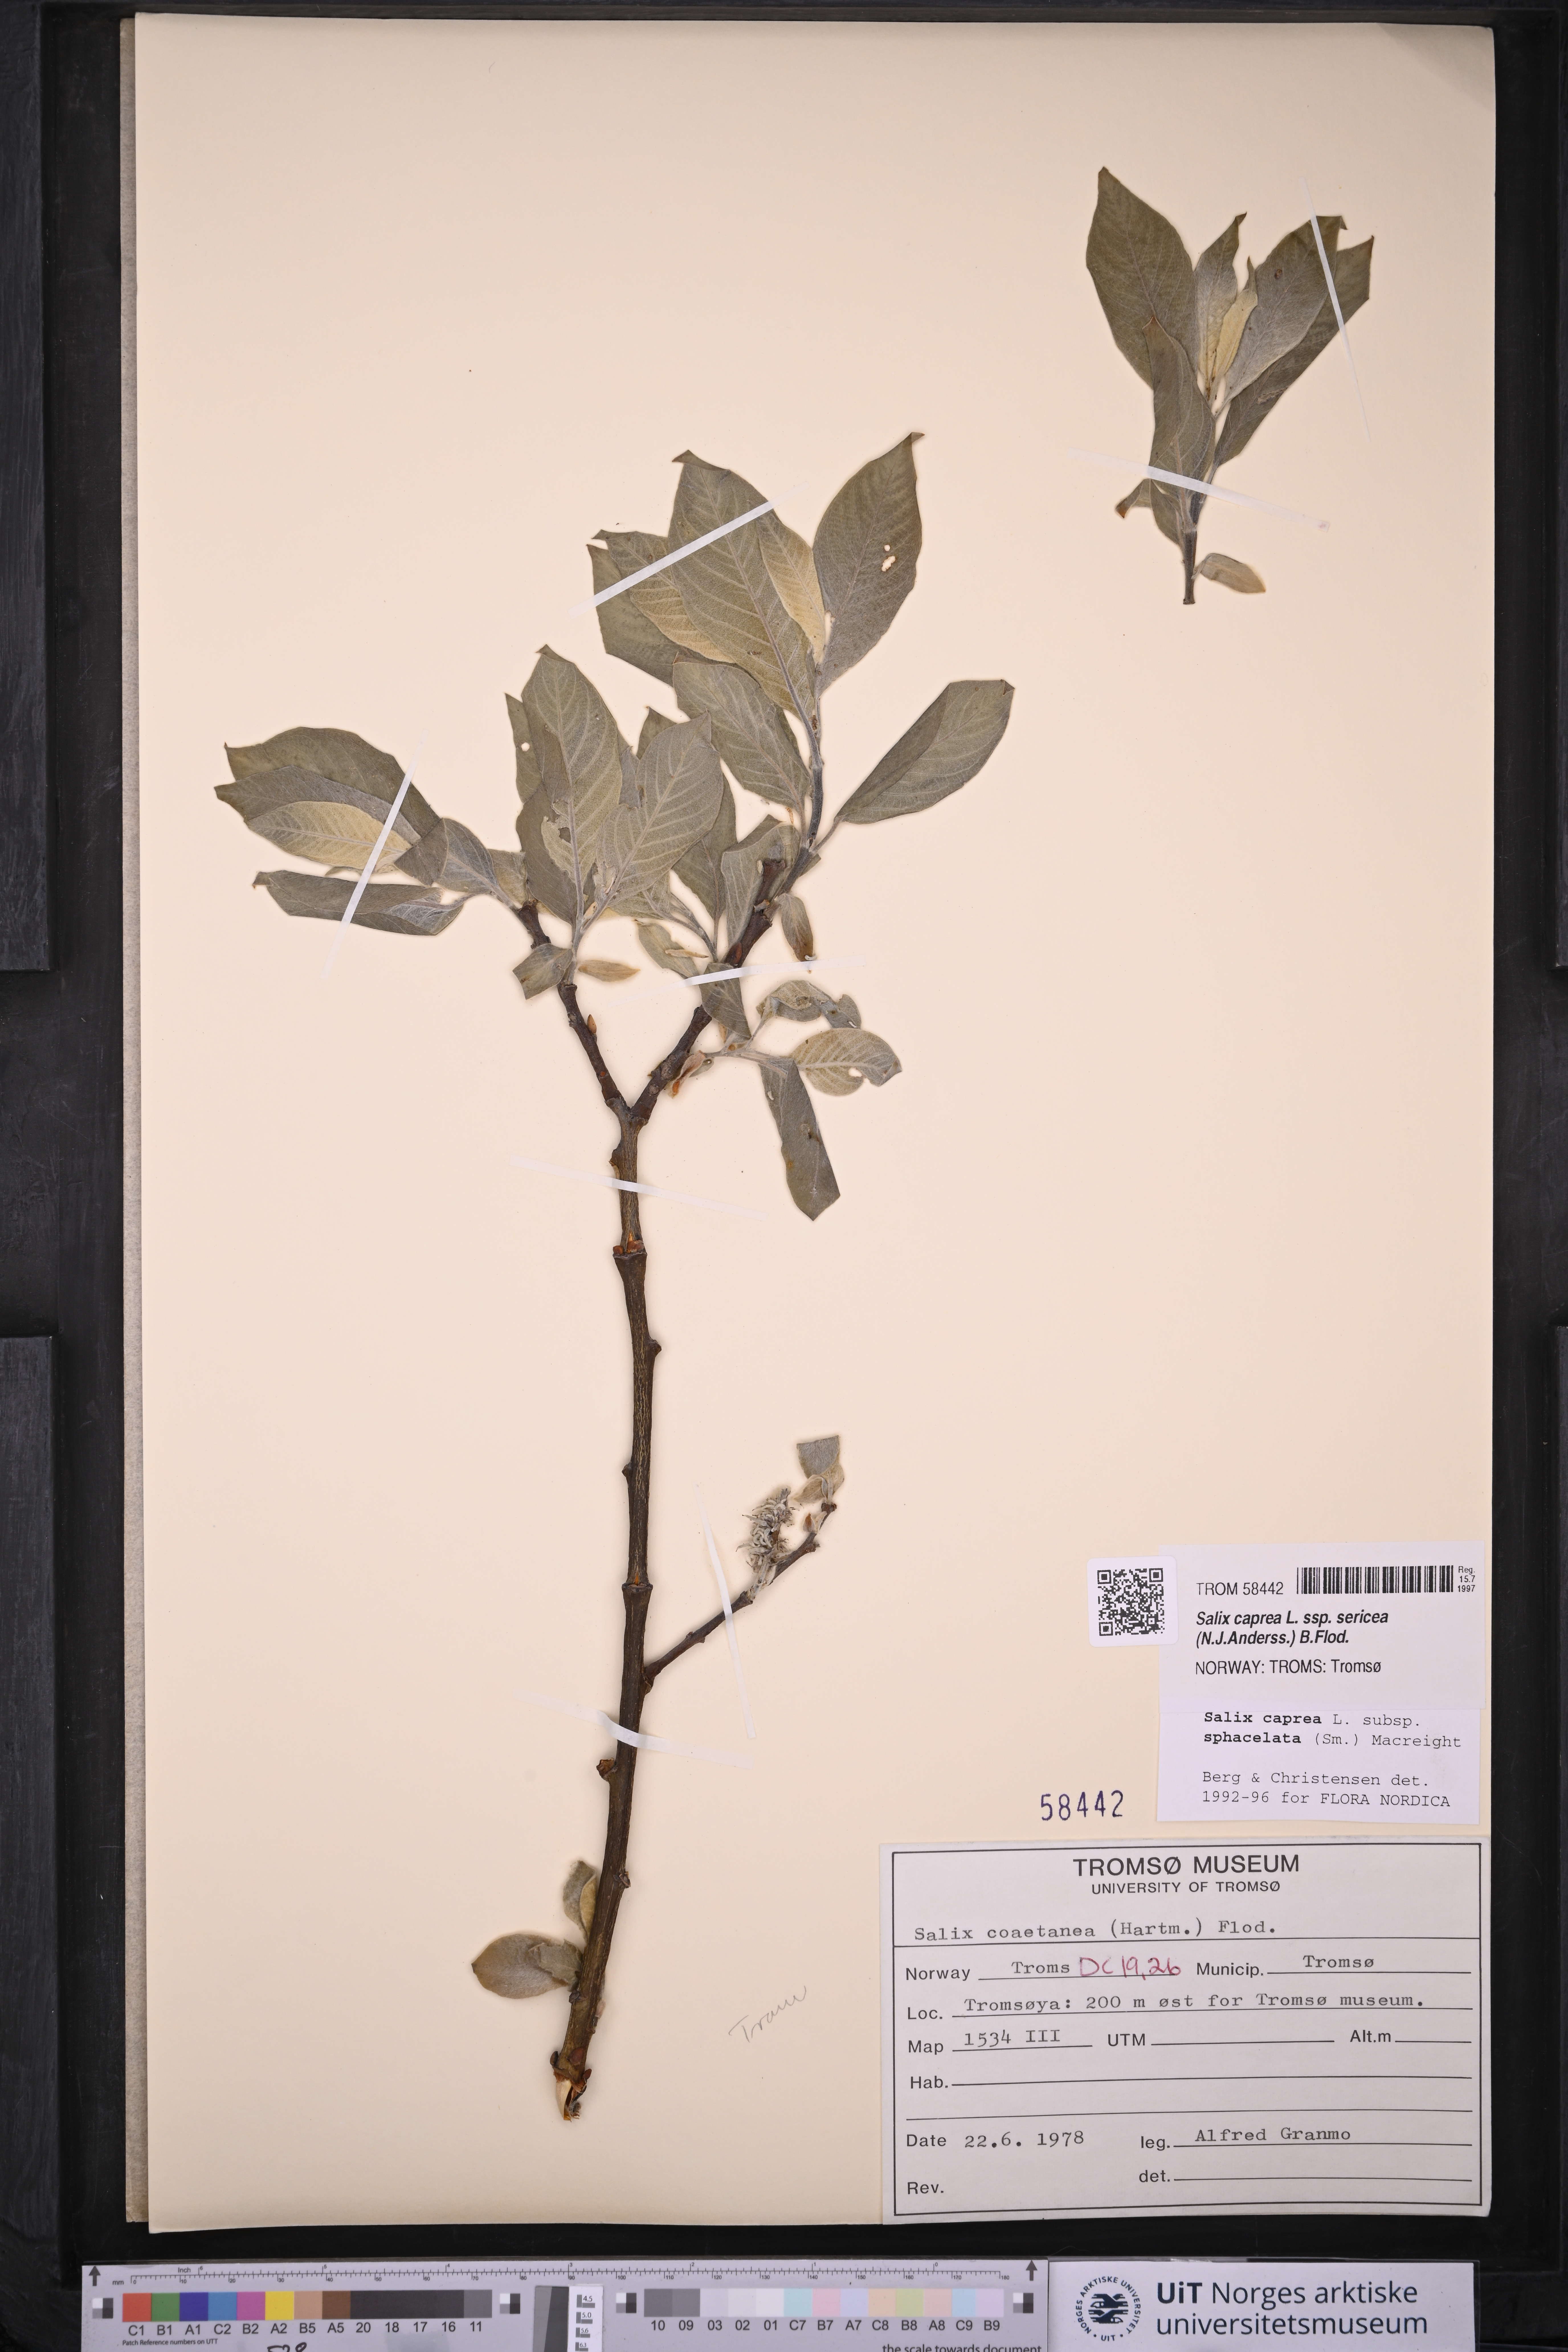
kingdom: Plantae
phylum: Tracheophyta
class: Magnoliopsida
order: Malpighiales
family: Salicaceae
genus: Salix
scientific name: Salix caprea
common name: Goat willow
